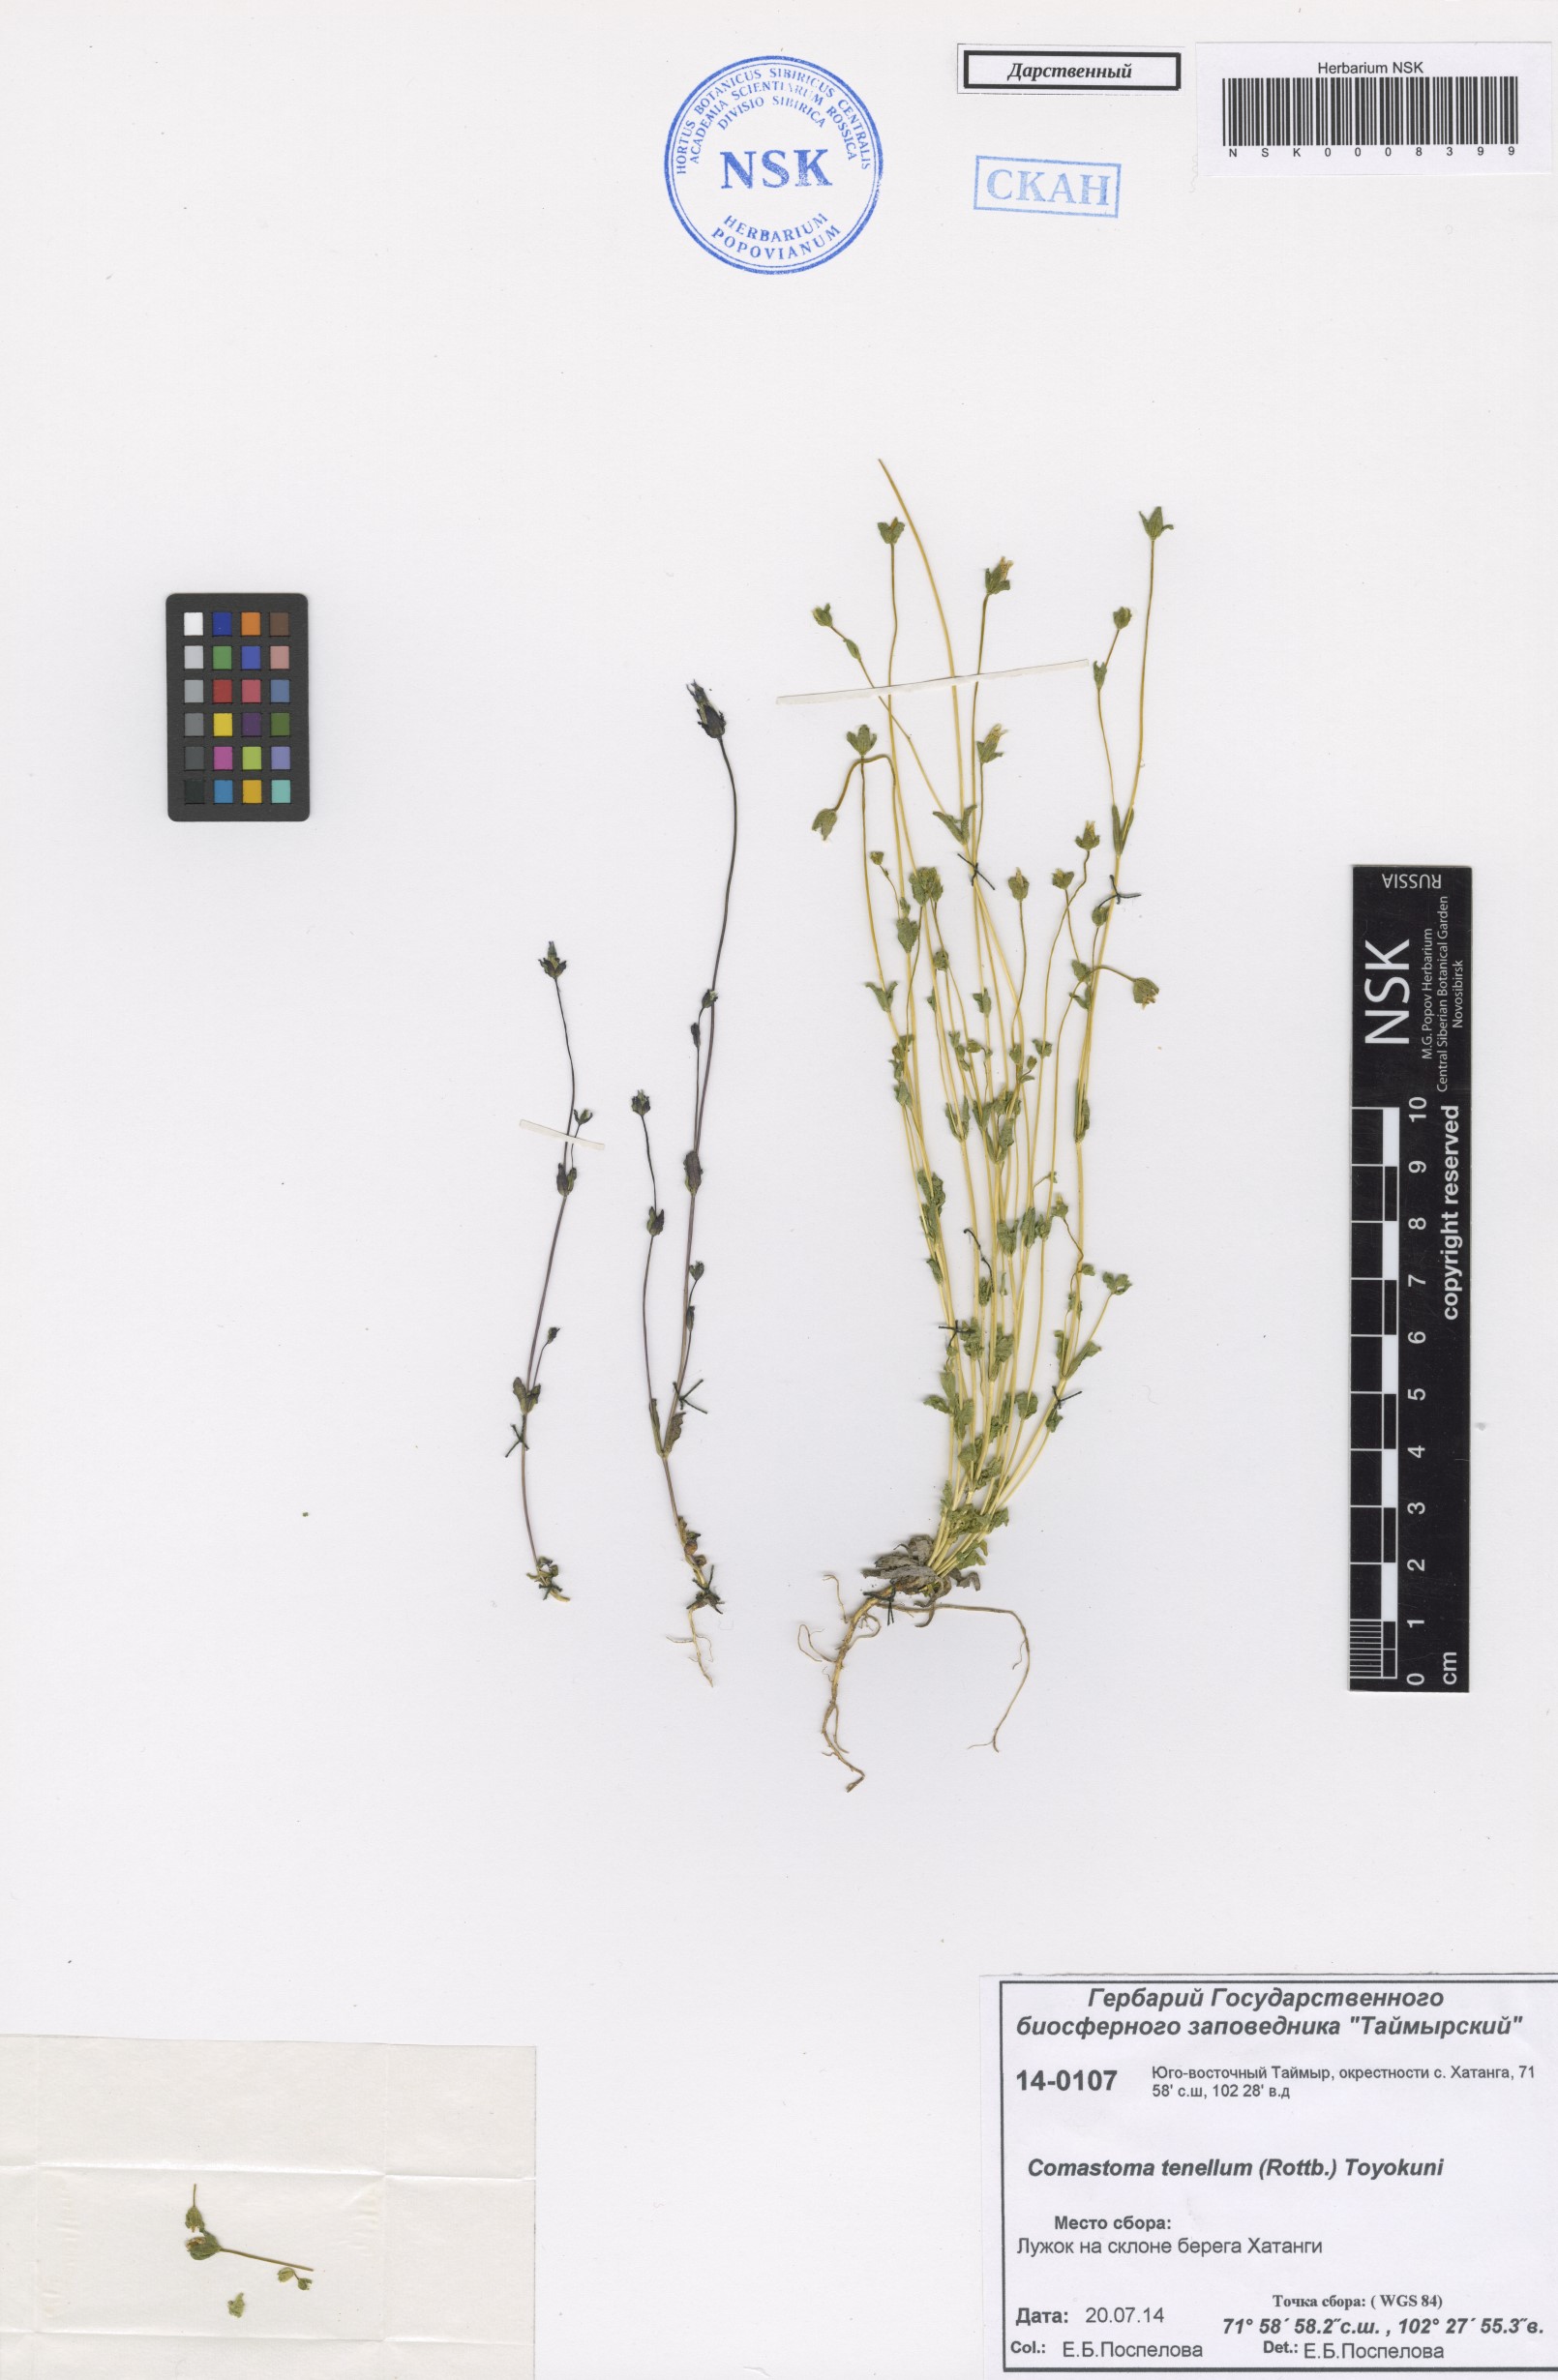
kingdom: Plantae
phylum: Tracheophyta
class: Magnoliopsida
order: Gentianales
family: Gentianaceae
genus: Comastoma
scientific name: Comastoma tenellum
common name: Dane's dwarf gentian
